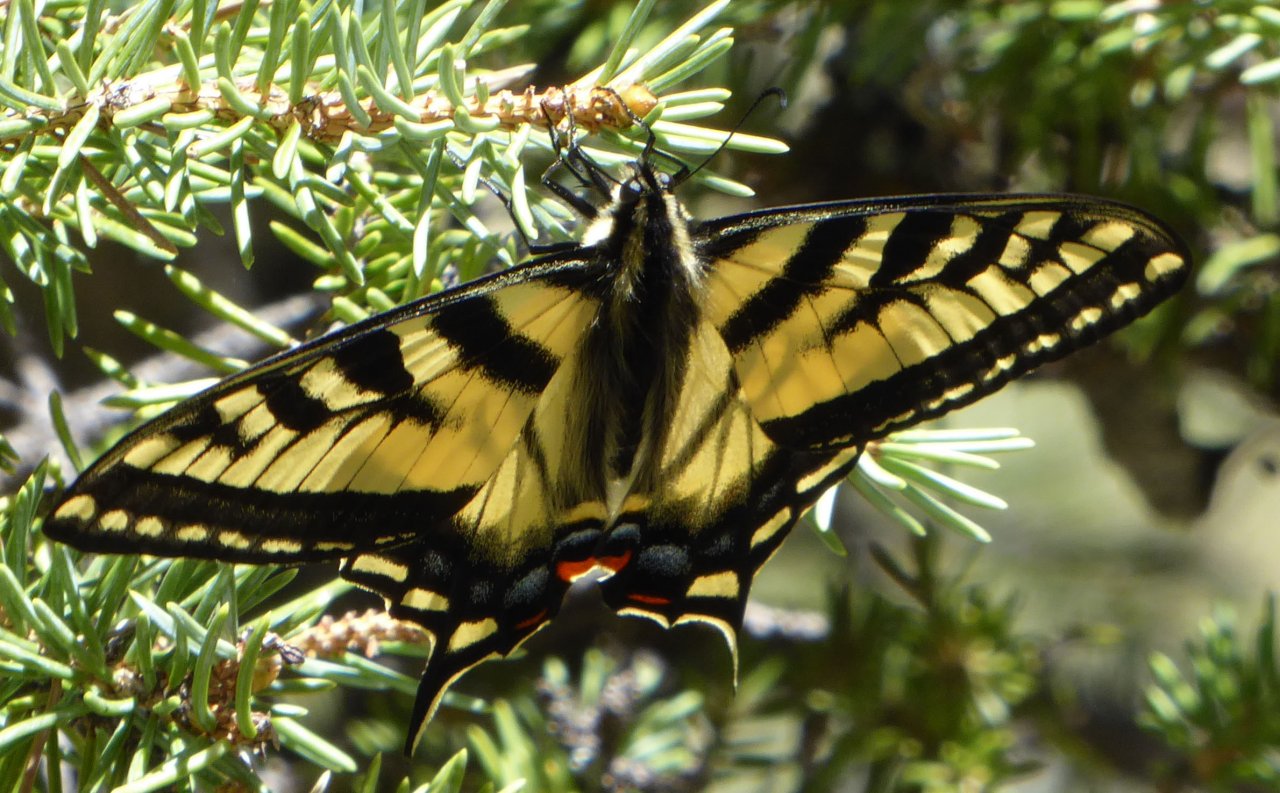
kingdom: Animalia
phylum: Arthropoda
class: Insecta
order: Lepidoptera
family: Papilionidae
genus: Pterourus
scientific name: Pterourus rutulus
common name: Western Tiger Swallowtail
